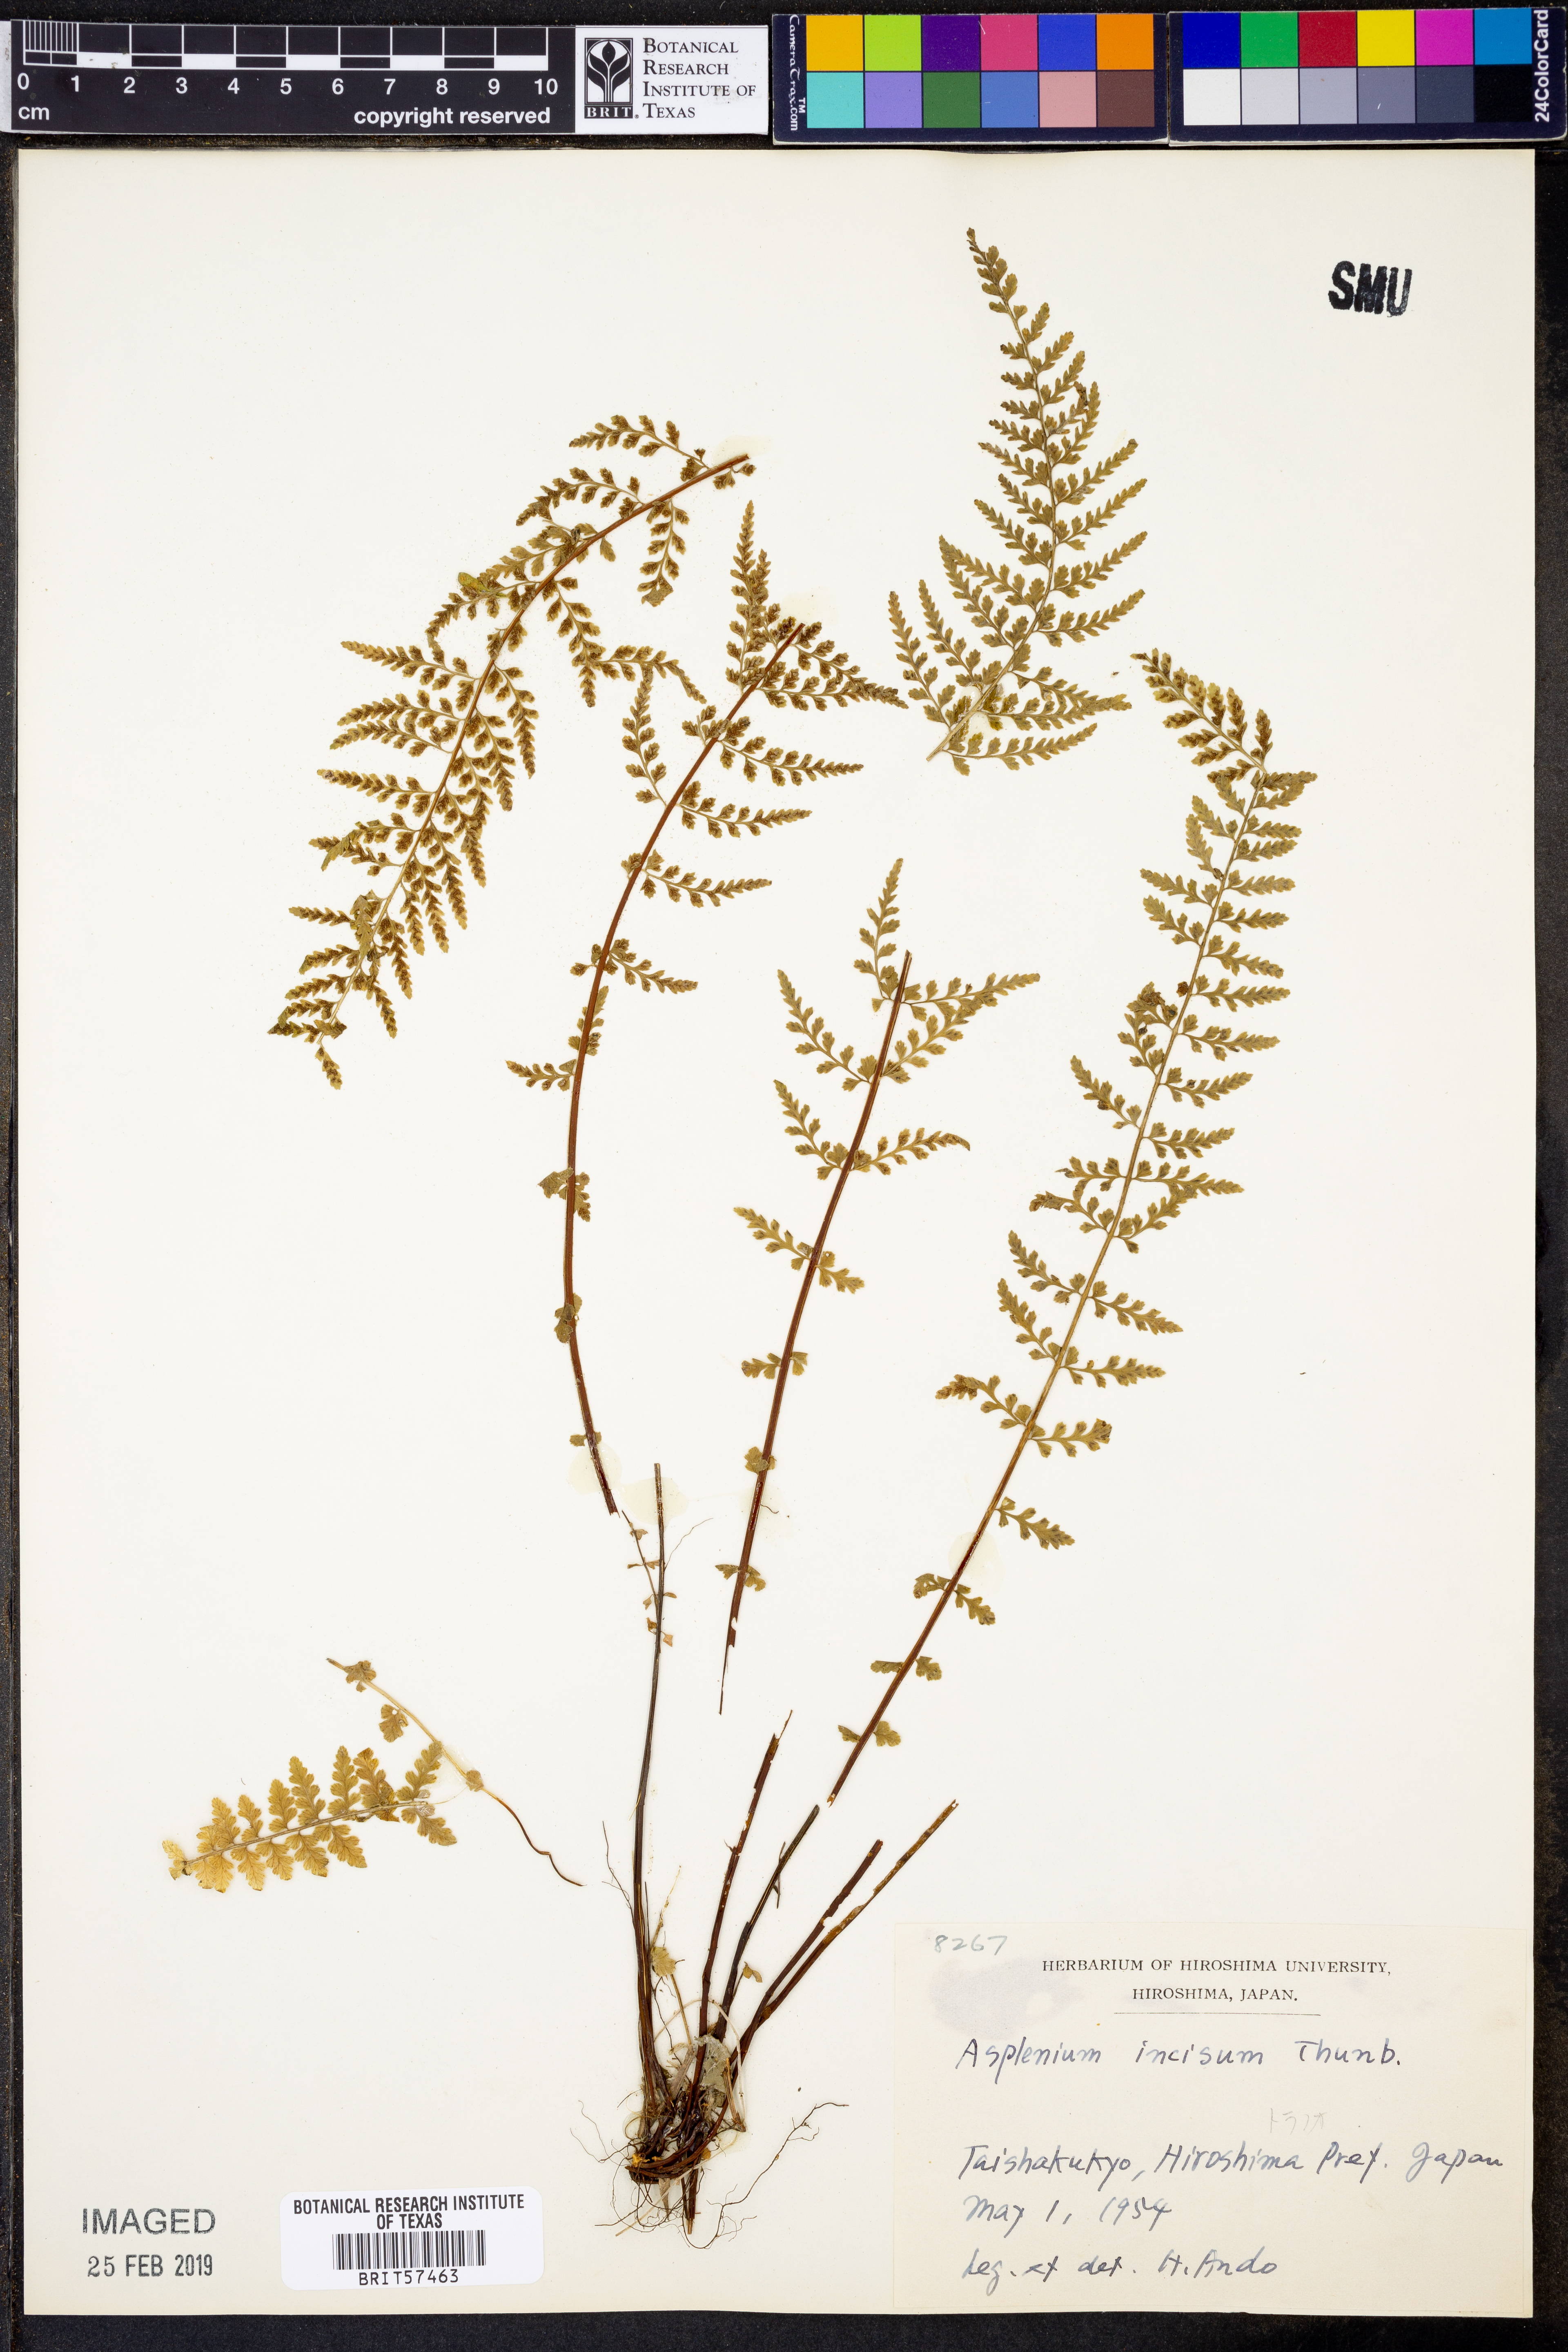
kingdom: Plantae
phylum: Tracheophyta
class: Polypodiopsida
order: Polypodiales
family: Aspleniaceae
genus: Asplenium
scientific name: Asplenium incisum
